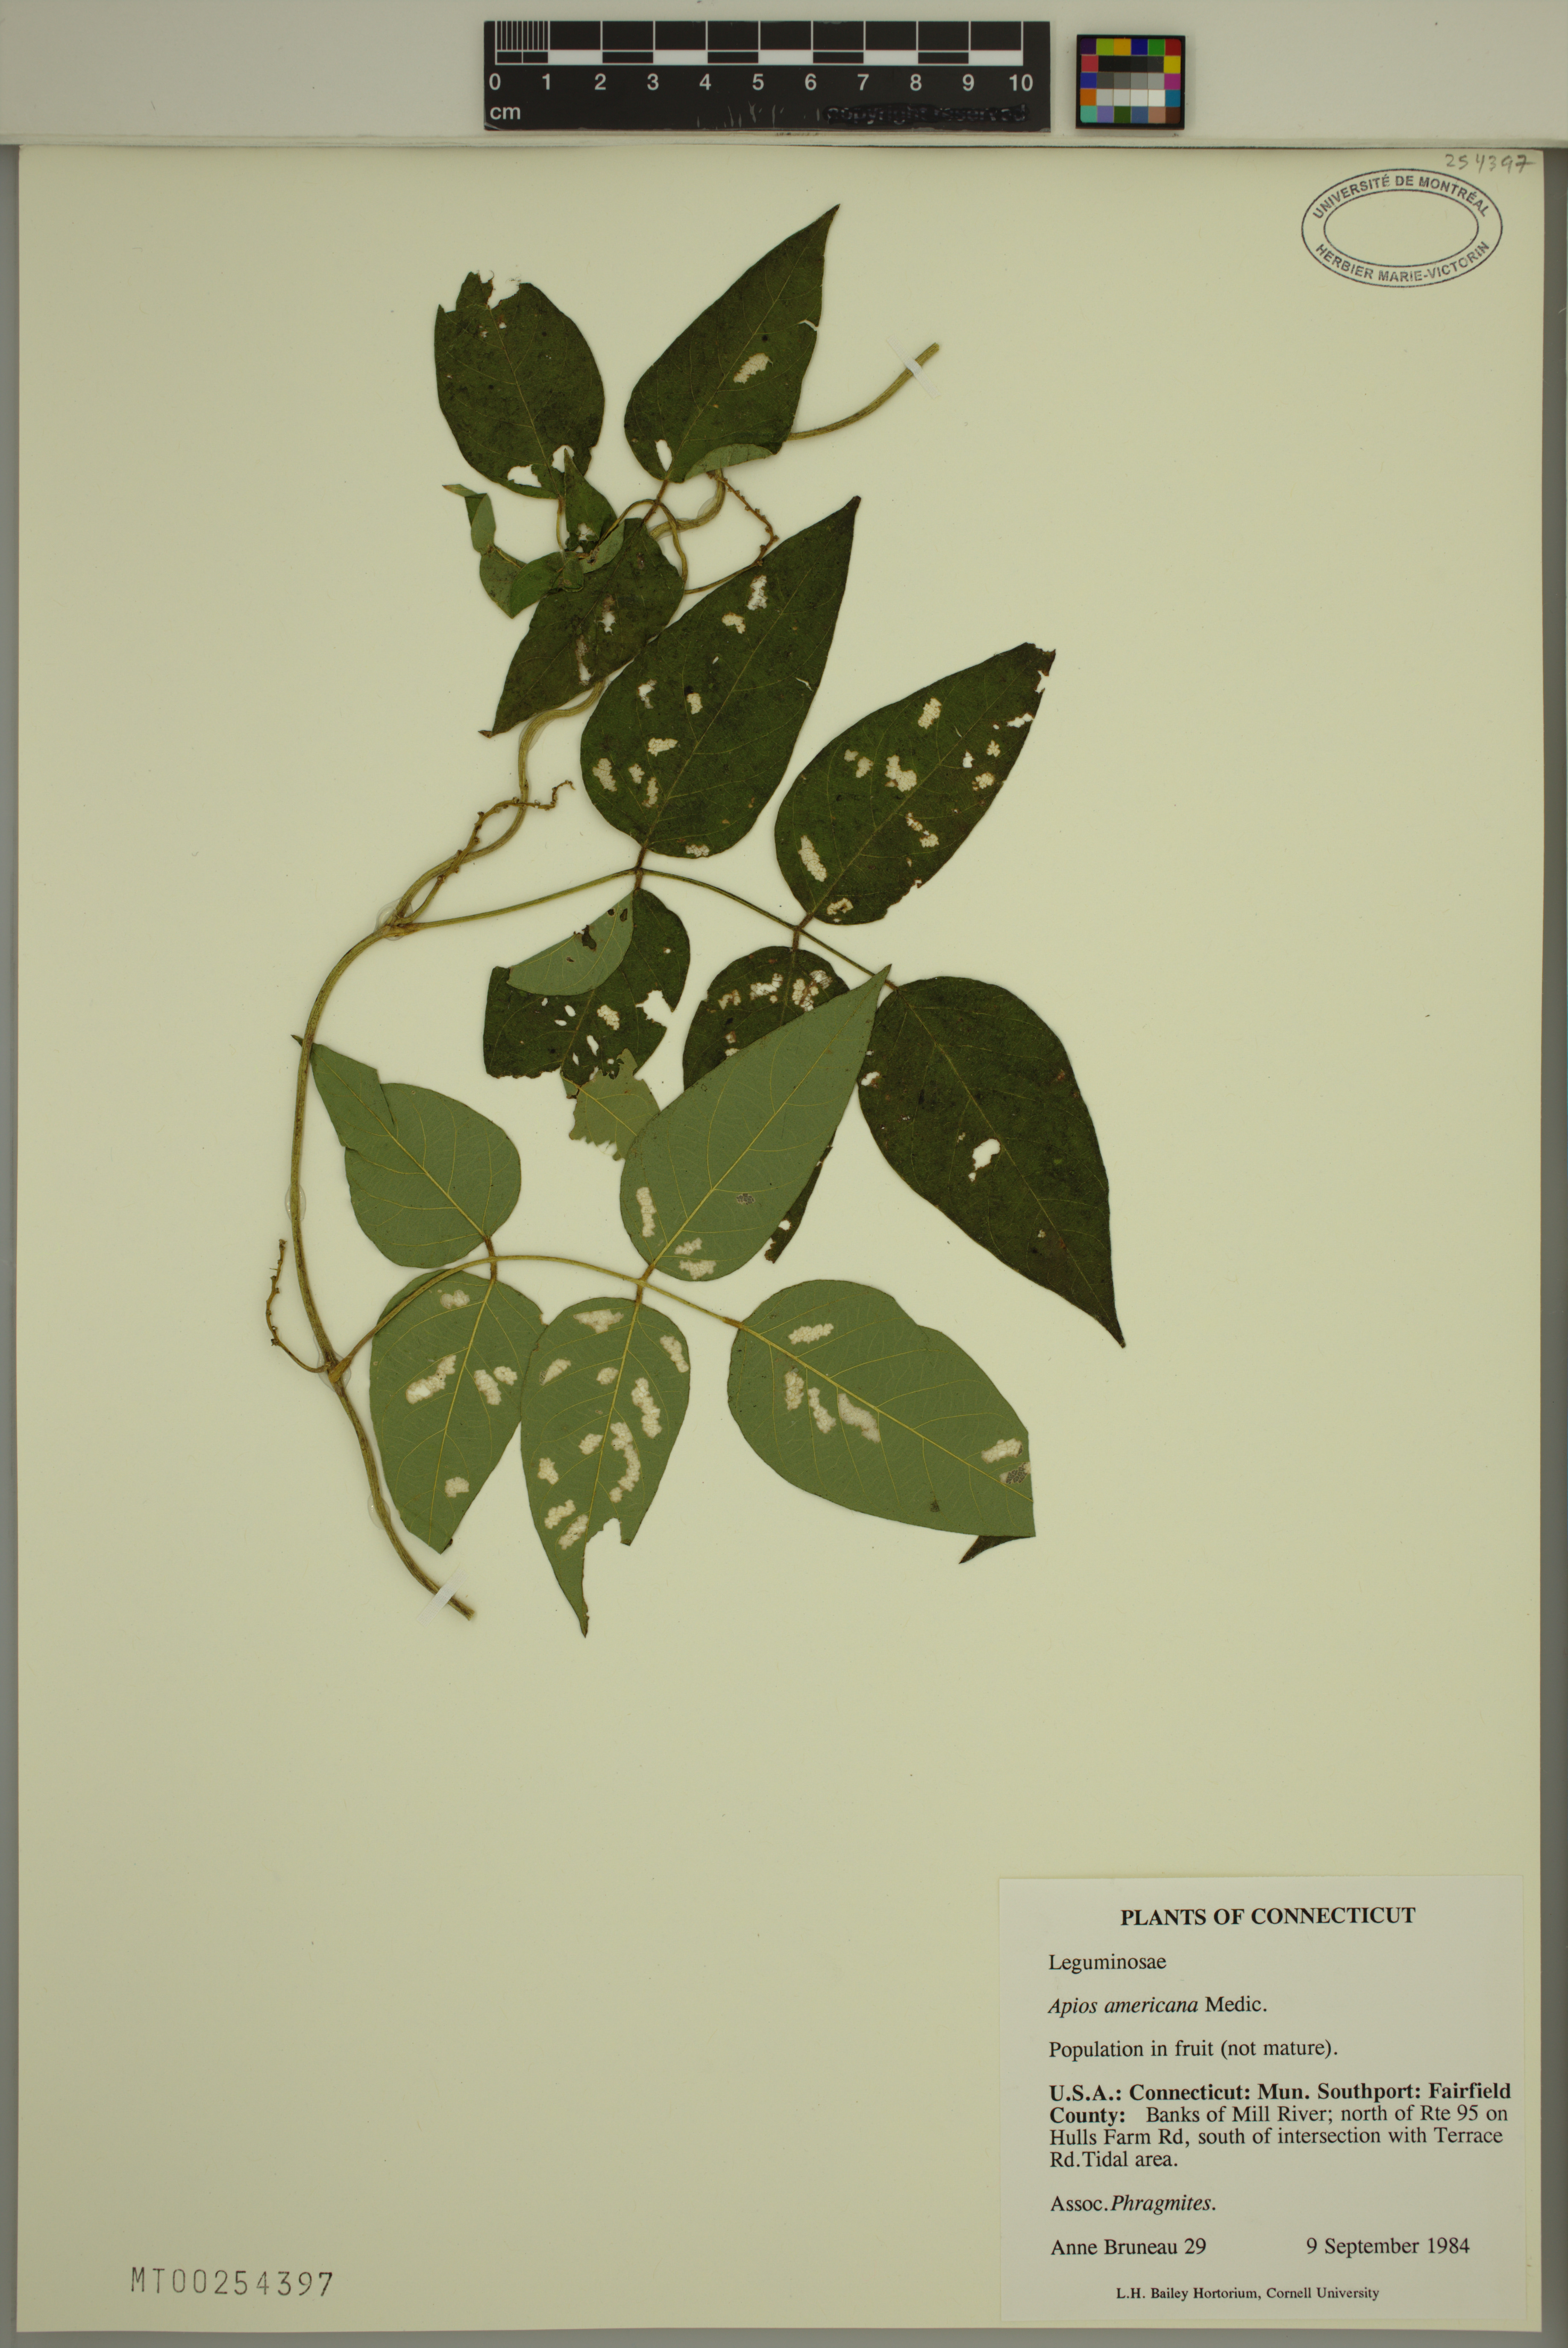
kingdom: Plantae
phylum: Tracheophyta
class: Magnoliopsida
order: Fabales
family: Fabaceae
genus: Apios
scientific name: Apios americana
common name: American potato-bean
